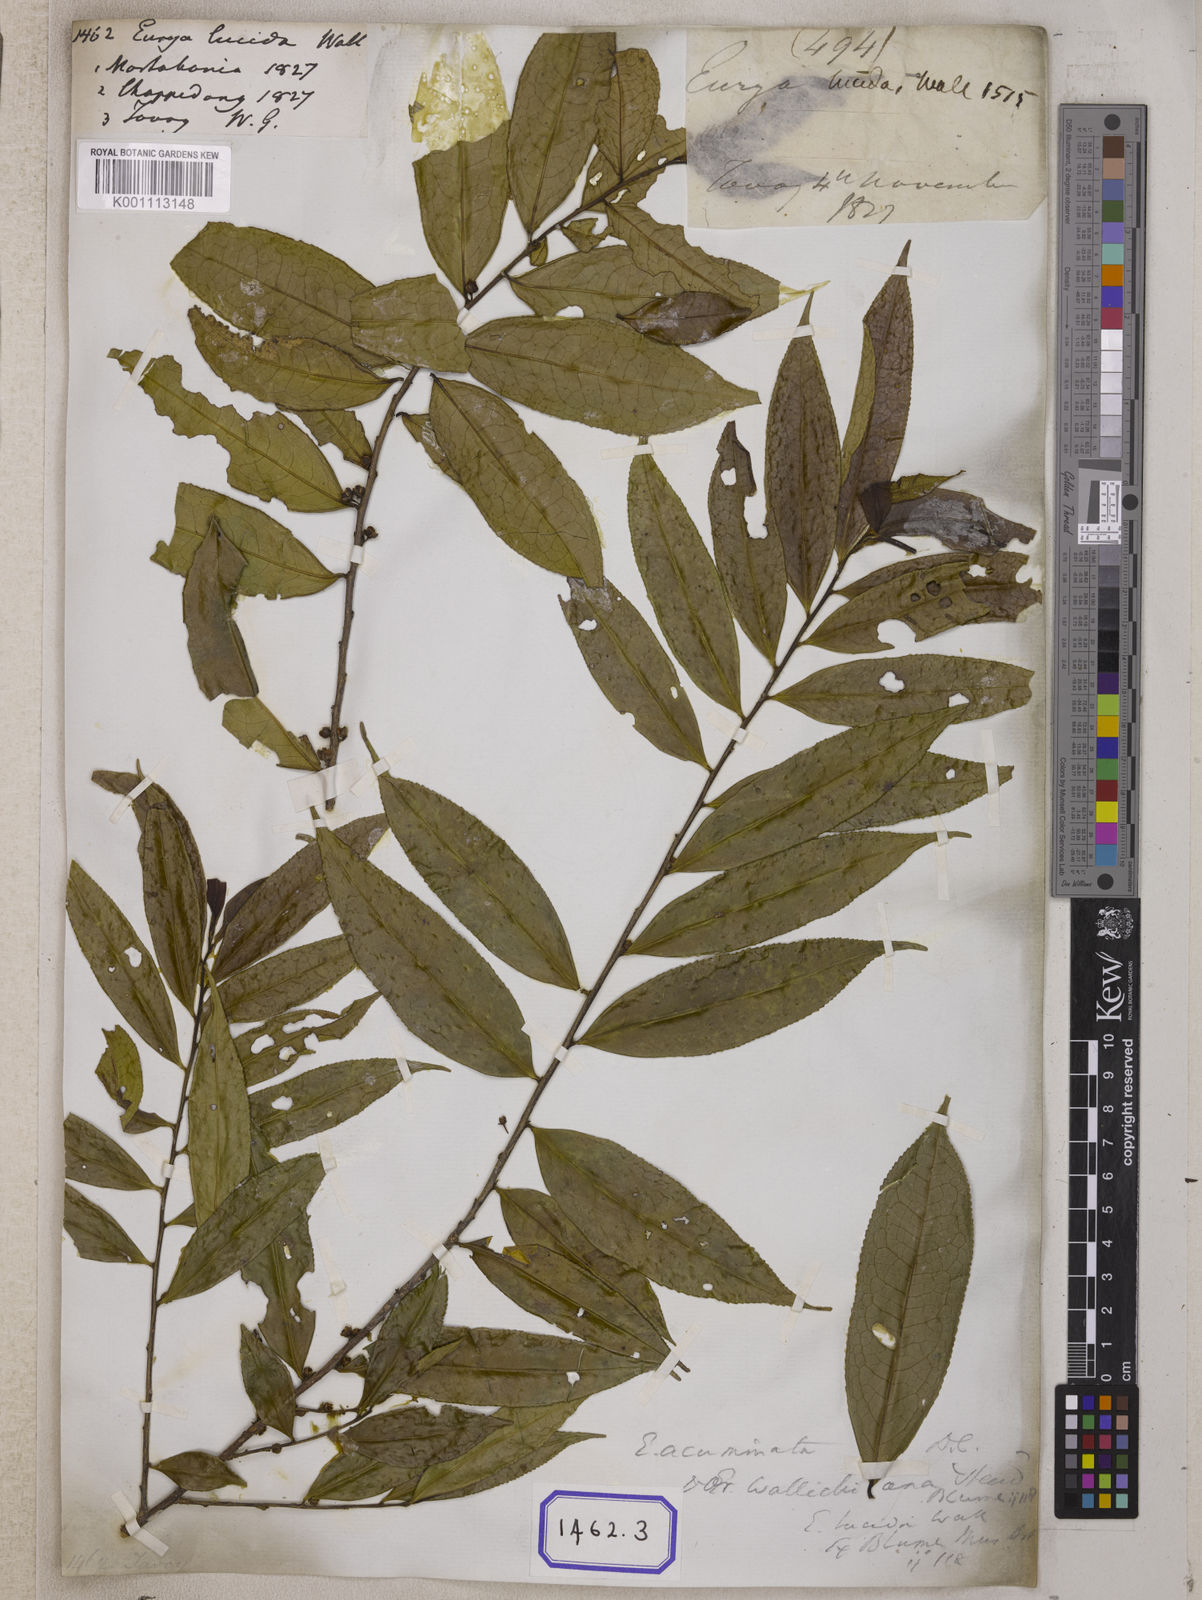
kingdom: Plantae
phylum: Tracheophyta
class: Magnoliopsida
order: Ericales
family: Pentaphylacaceae
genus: Eurya
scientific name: Eurya
